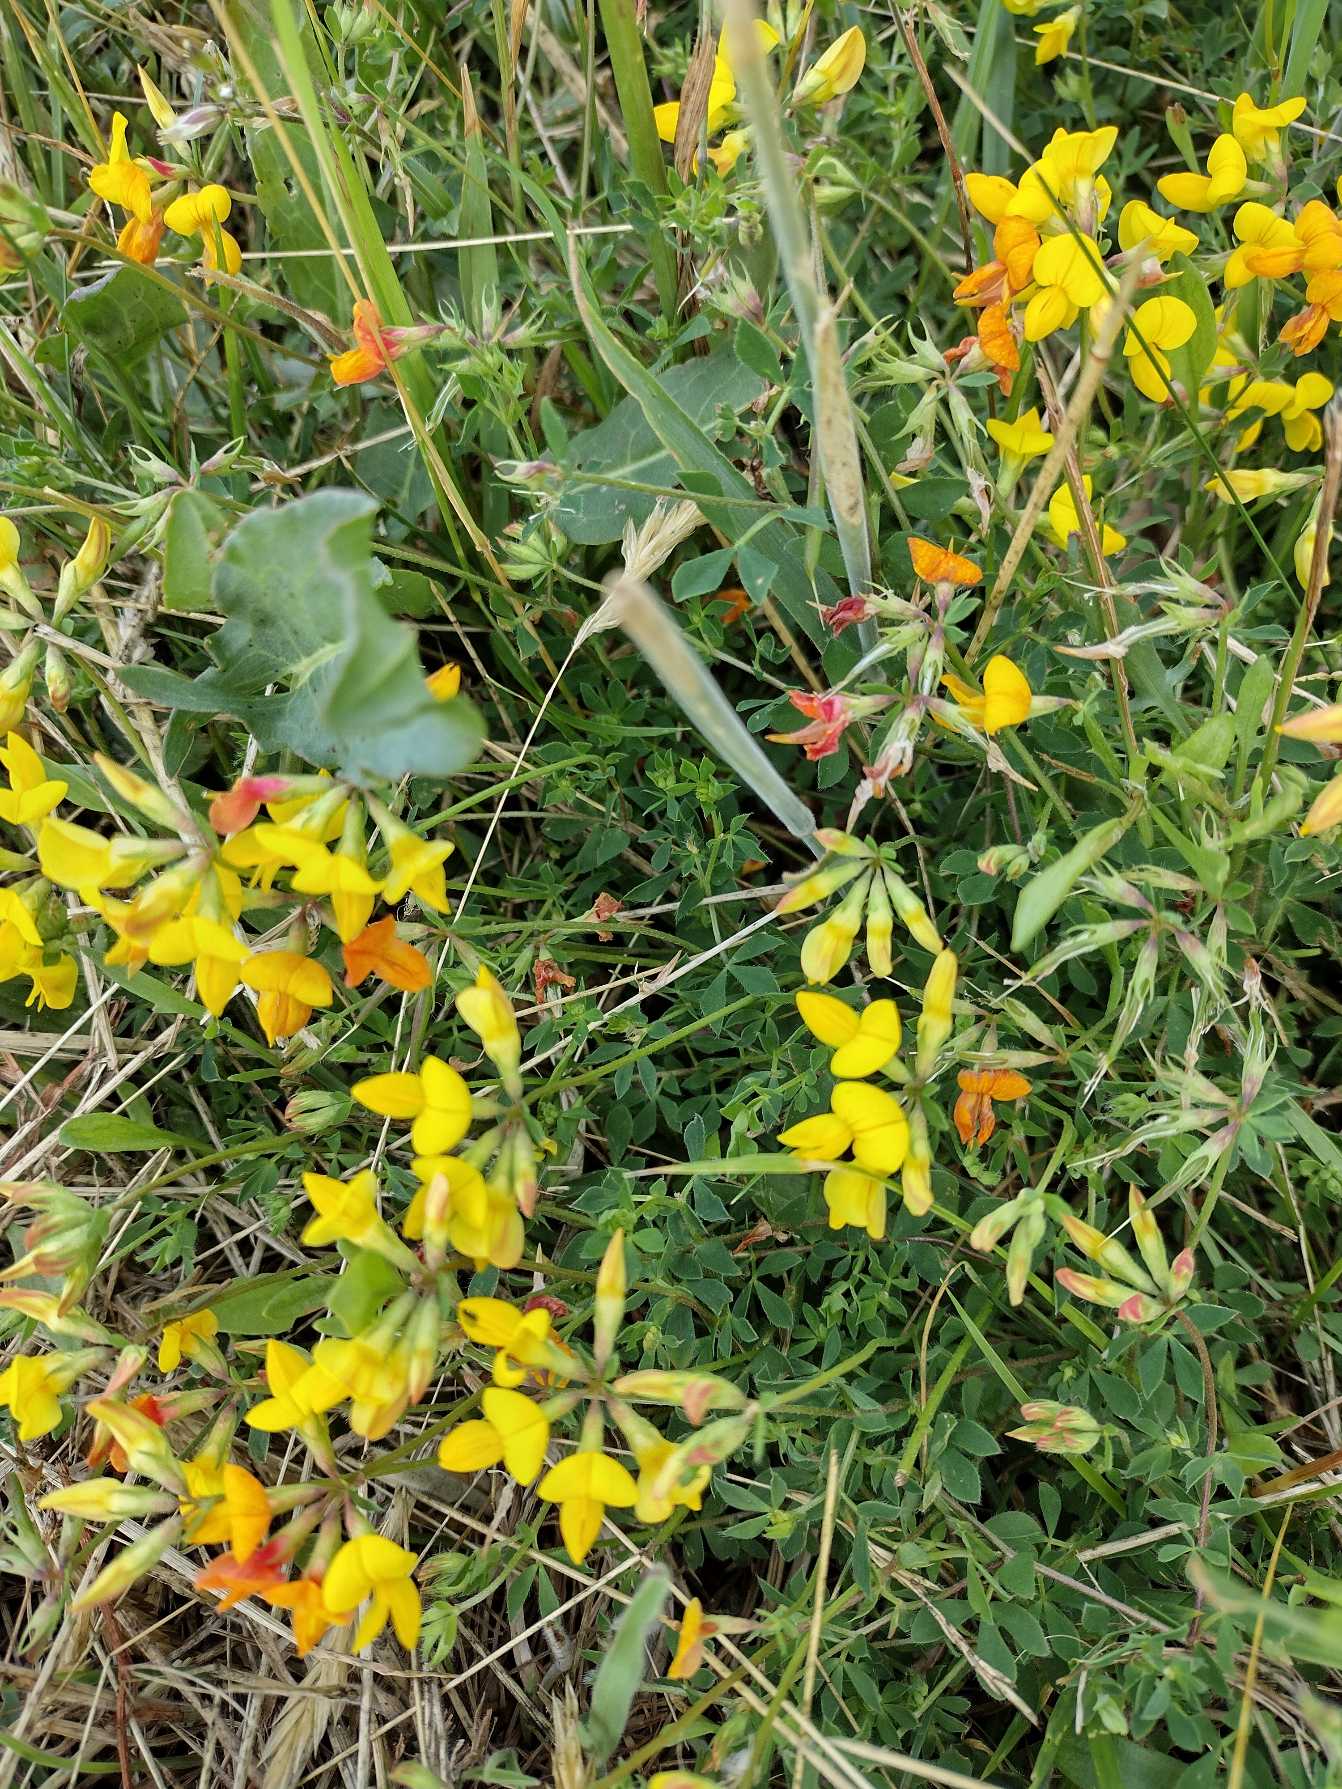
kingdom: Plantae
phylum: Tracheophyta
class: Magnoliopsida
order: Fabales
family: Fabaceae
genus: Lotus
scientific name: Lotus corniculatus
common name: Almindelig kællingetand
